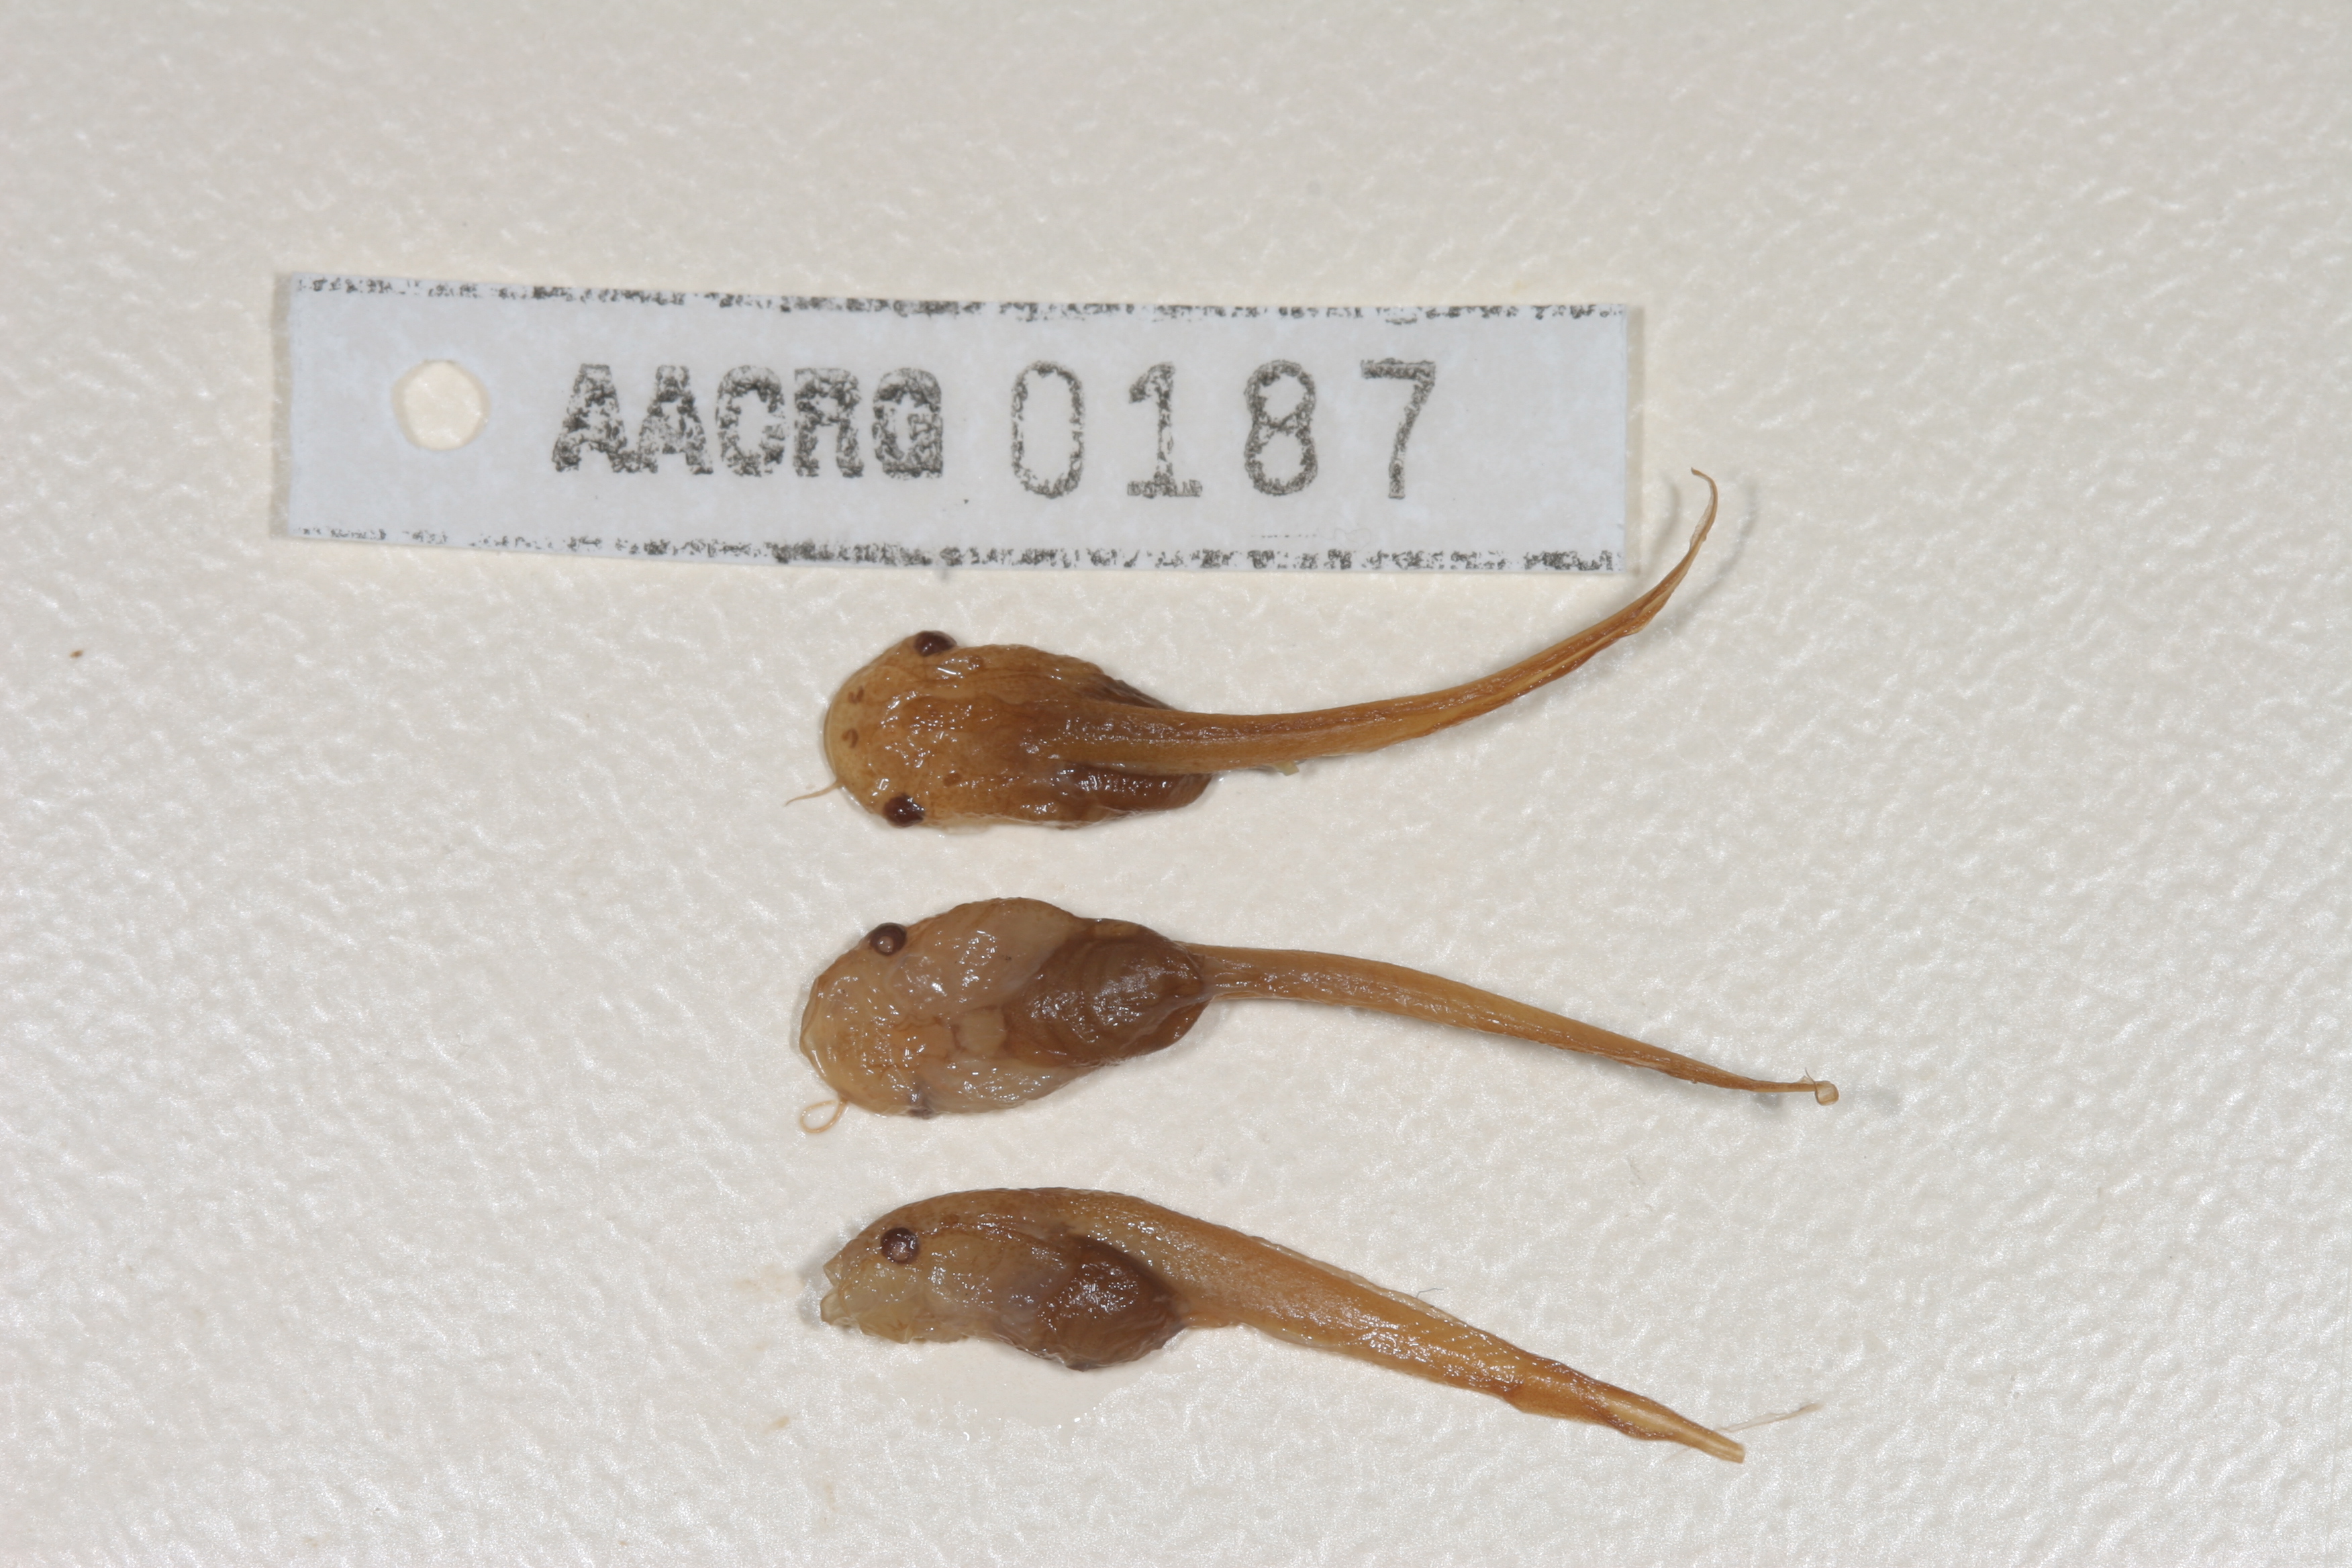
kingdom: Animalia
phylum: Chordata
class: Amphibia
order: Anura
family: Pipidae
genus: Xenopus
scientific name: Xenopus laevis
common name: African clawed frog
